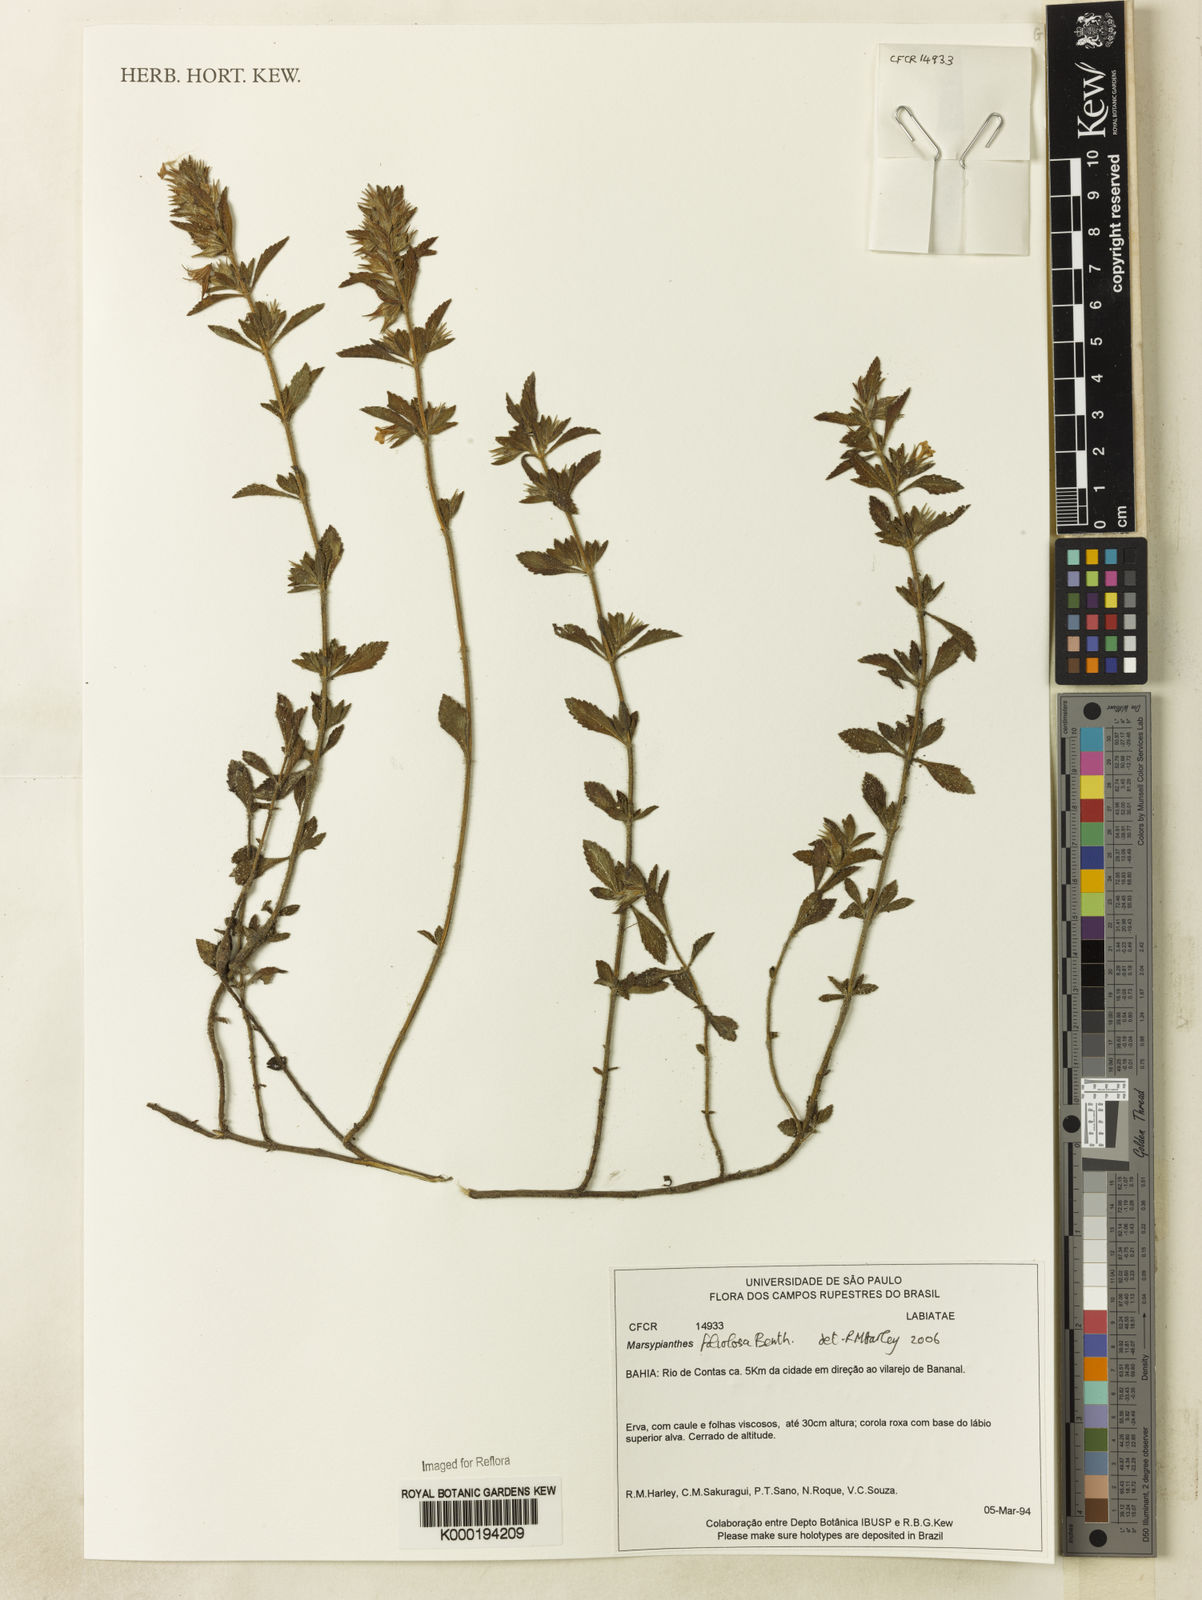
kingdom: Plantae
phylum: Tracheophyta
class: Magnoliopsida
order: Lamiales
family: Lamiaceae
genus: Marsypianthes
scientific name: Marsypianthes foliolosa
